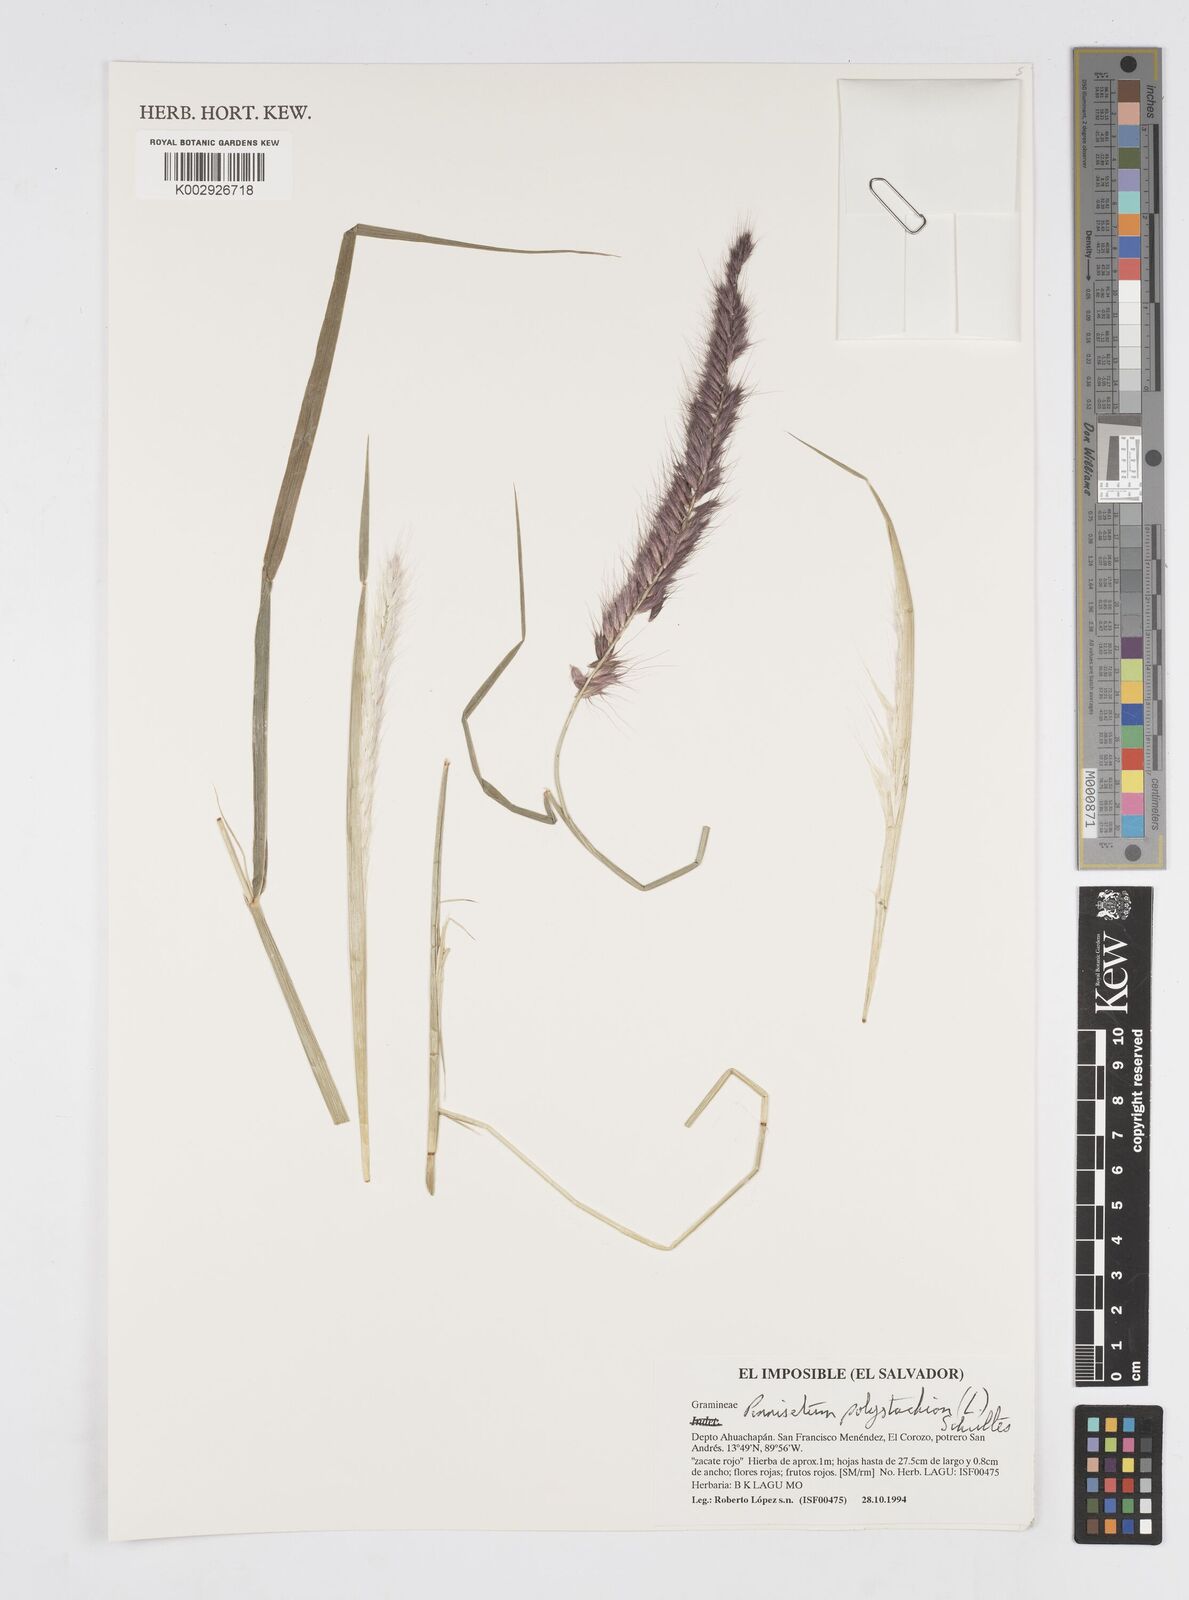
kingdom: Plantae
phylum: Tracheophyta
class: Liliopsida
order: Poales
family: Poaceae
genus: Setaria
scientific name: Setaria parviflora
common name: Knotroot bristle-grass
